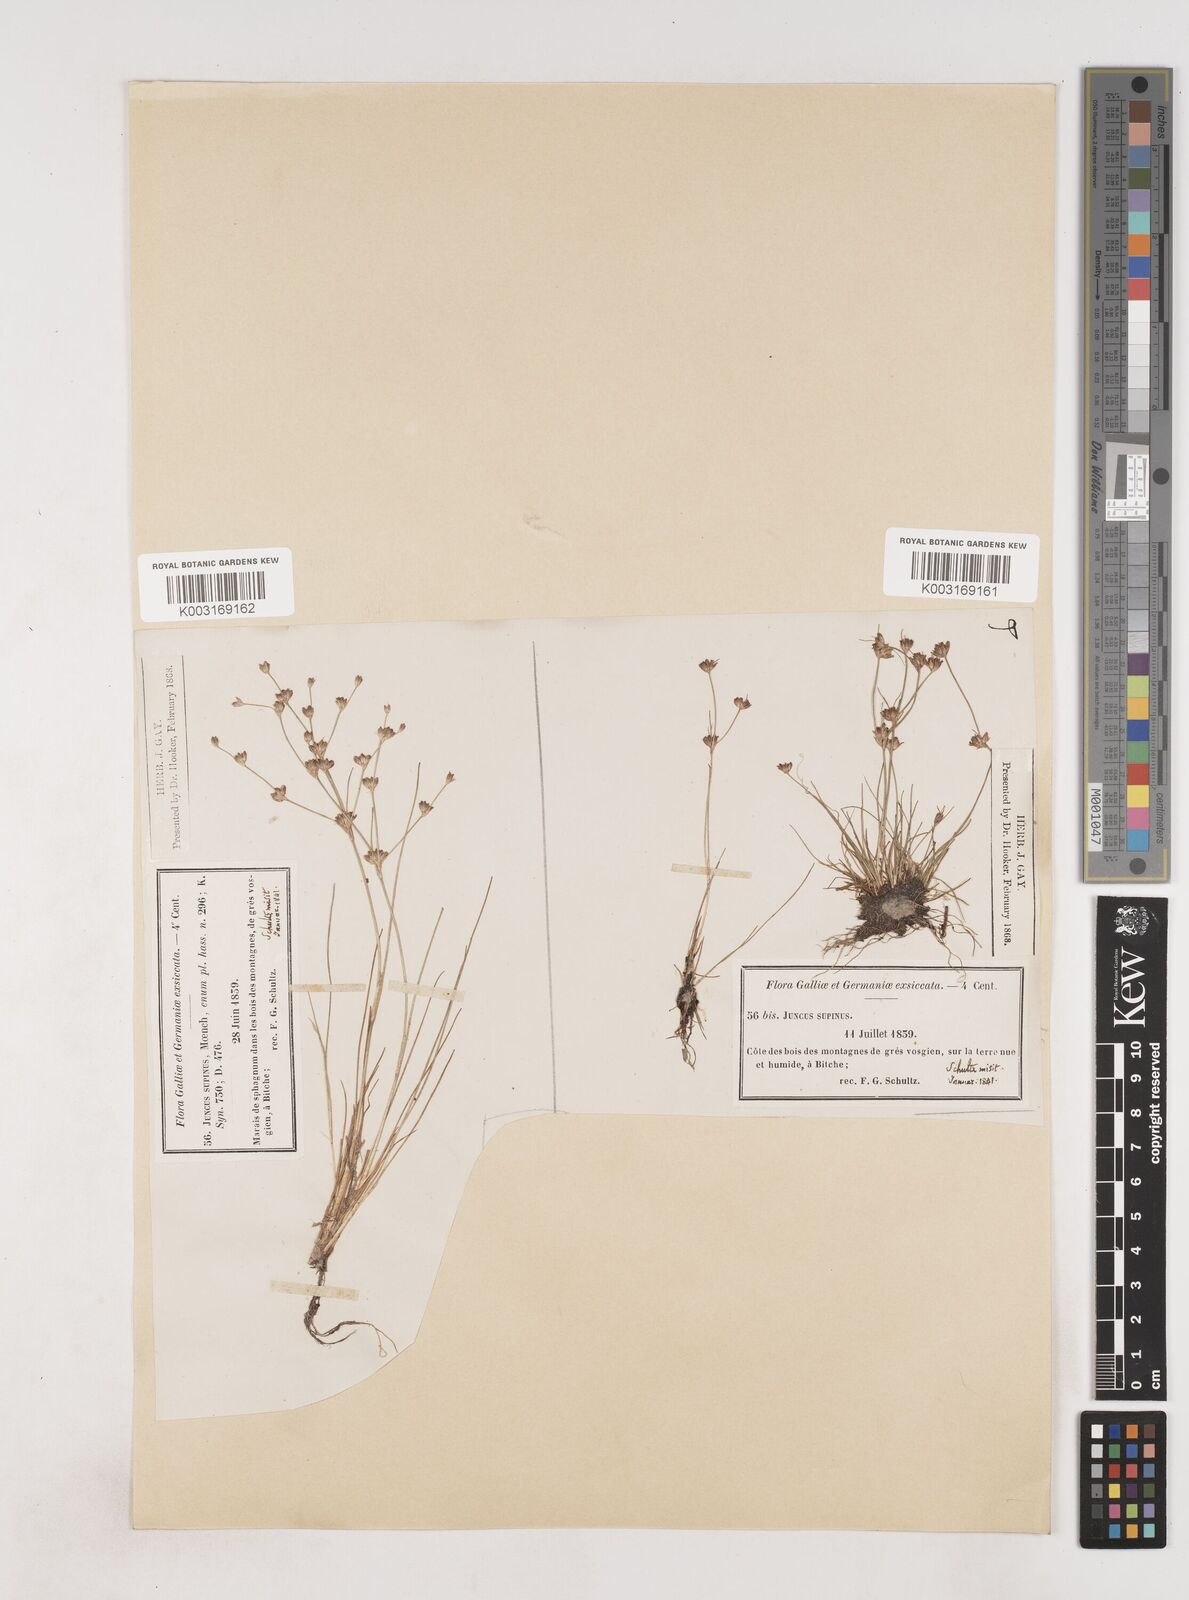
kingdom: Plantae
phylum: Tracheophyta
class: Liliopsida
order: Poales
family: Juncaceae
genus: Juncus
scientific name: Juncus bulbosus
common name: Bulbous rush
